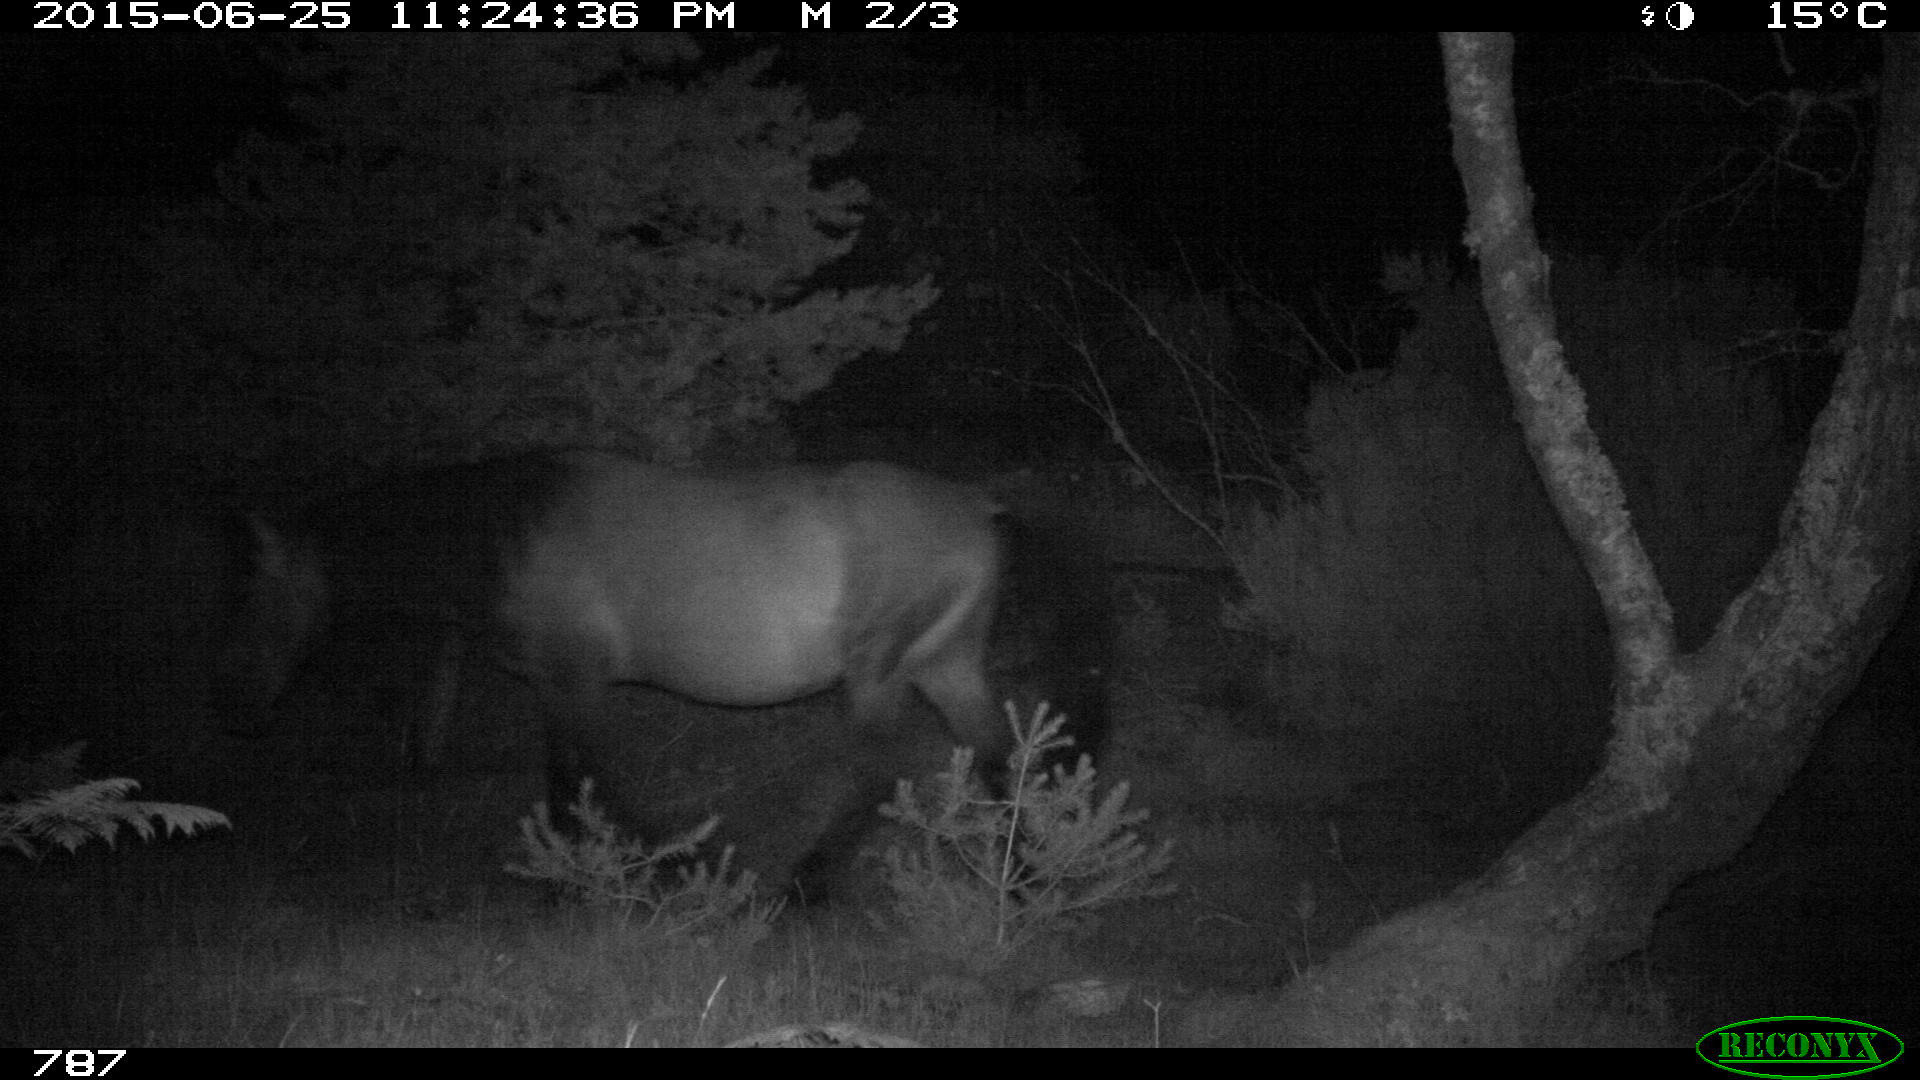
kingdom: Animalia
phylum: Chordata
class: Mammalia
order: Perissodactyla
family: Equidae
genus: Equus
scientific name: Equus caballus
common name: Horse
